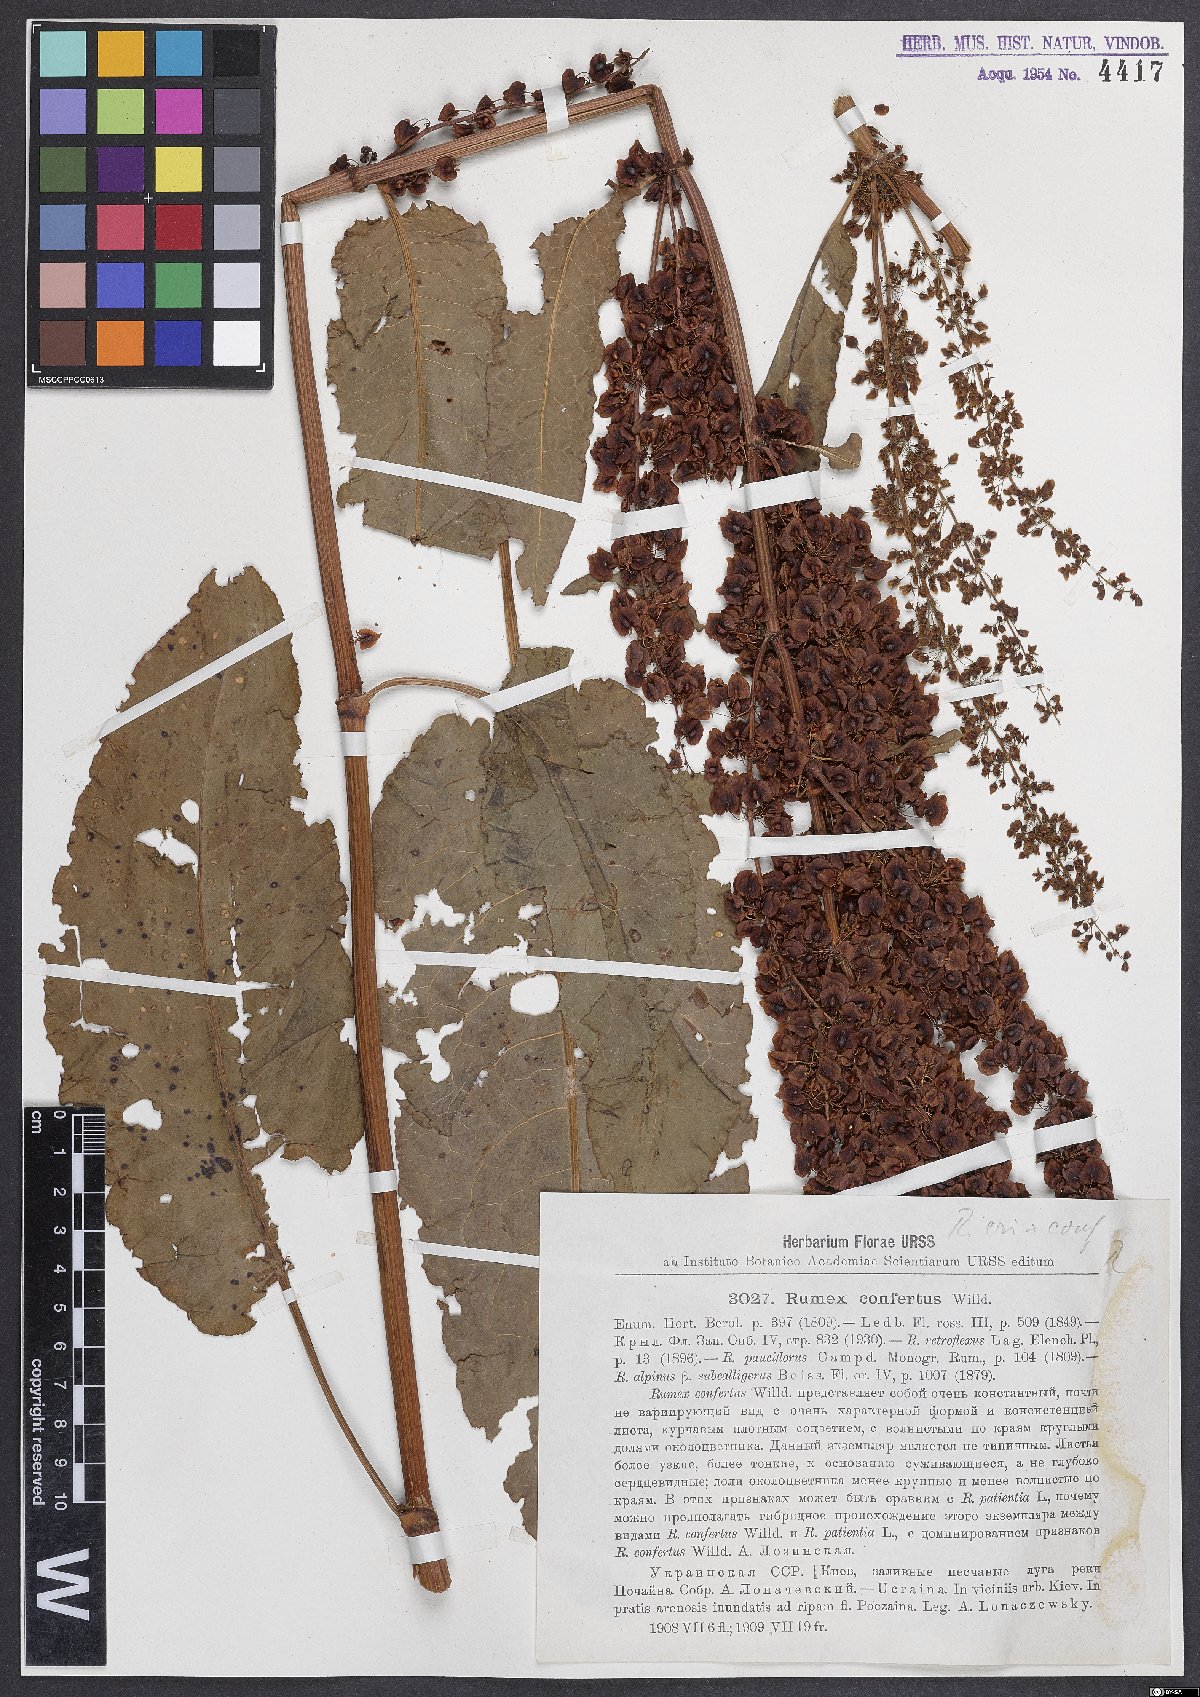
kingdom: Plantae
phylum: Tracheophyta
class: Magnoliopsida
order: Caryophyllales
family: Polygonaceae
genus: Rumex
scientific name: Rumex confertus
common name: Russian dock
